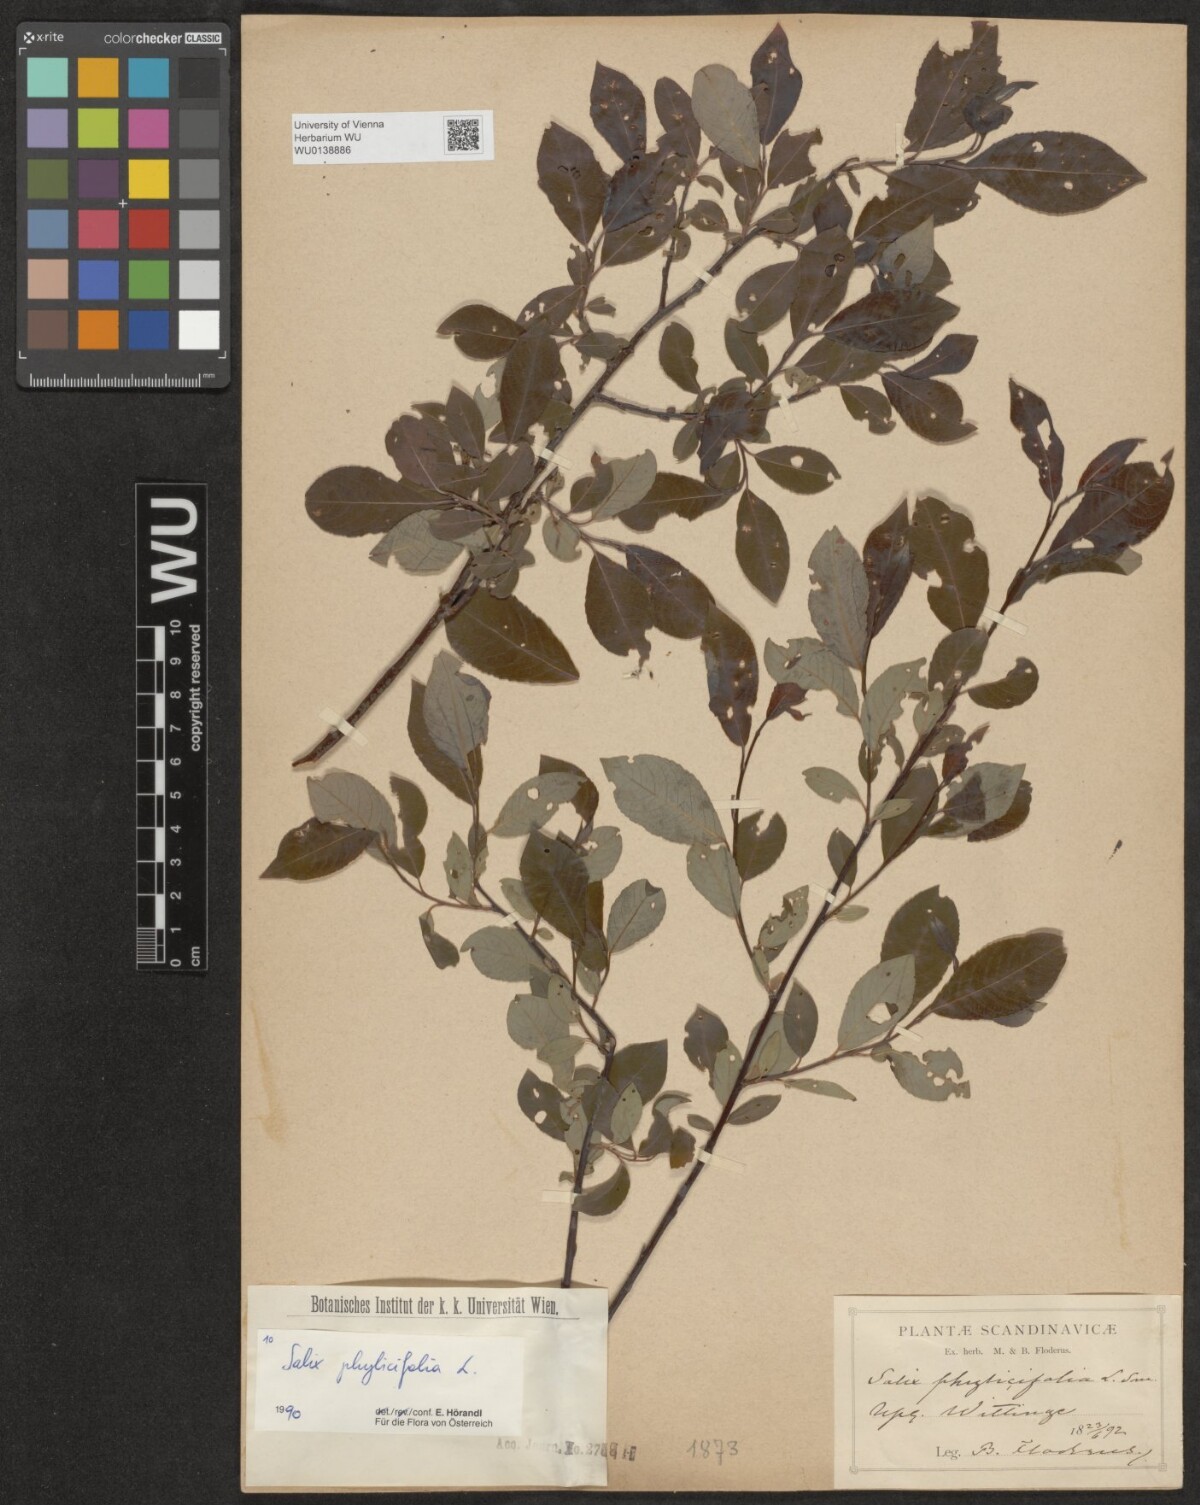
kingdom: Plantae
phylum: Tracheophyta
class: Magnoliopsida
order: Malpighiales
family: Salicaceae
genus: Salix
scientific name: Salix phylicifolia
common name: Tea-leaved willow
